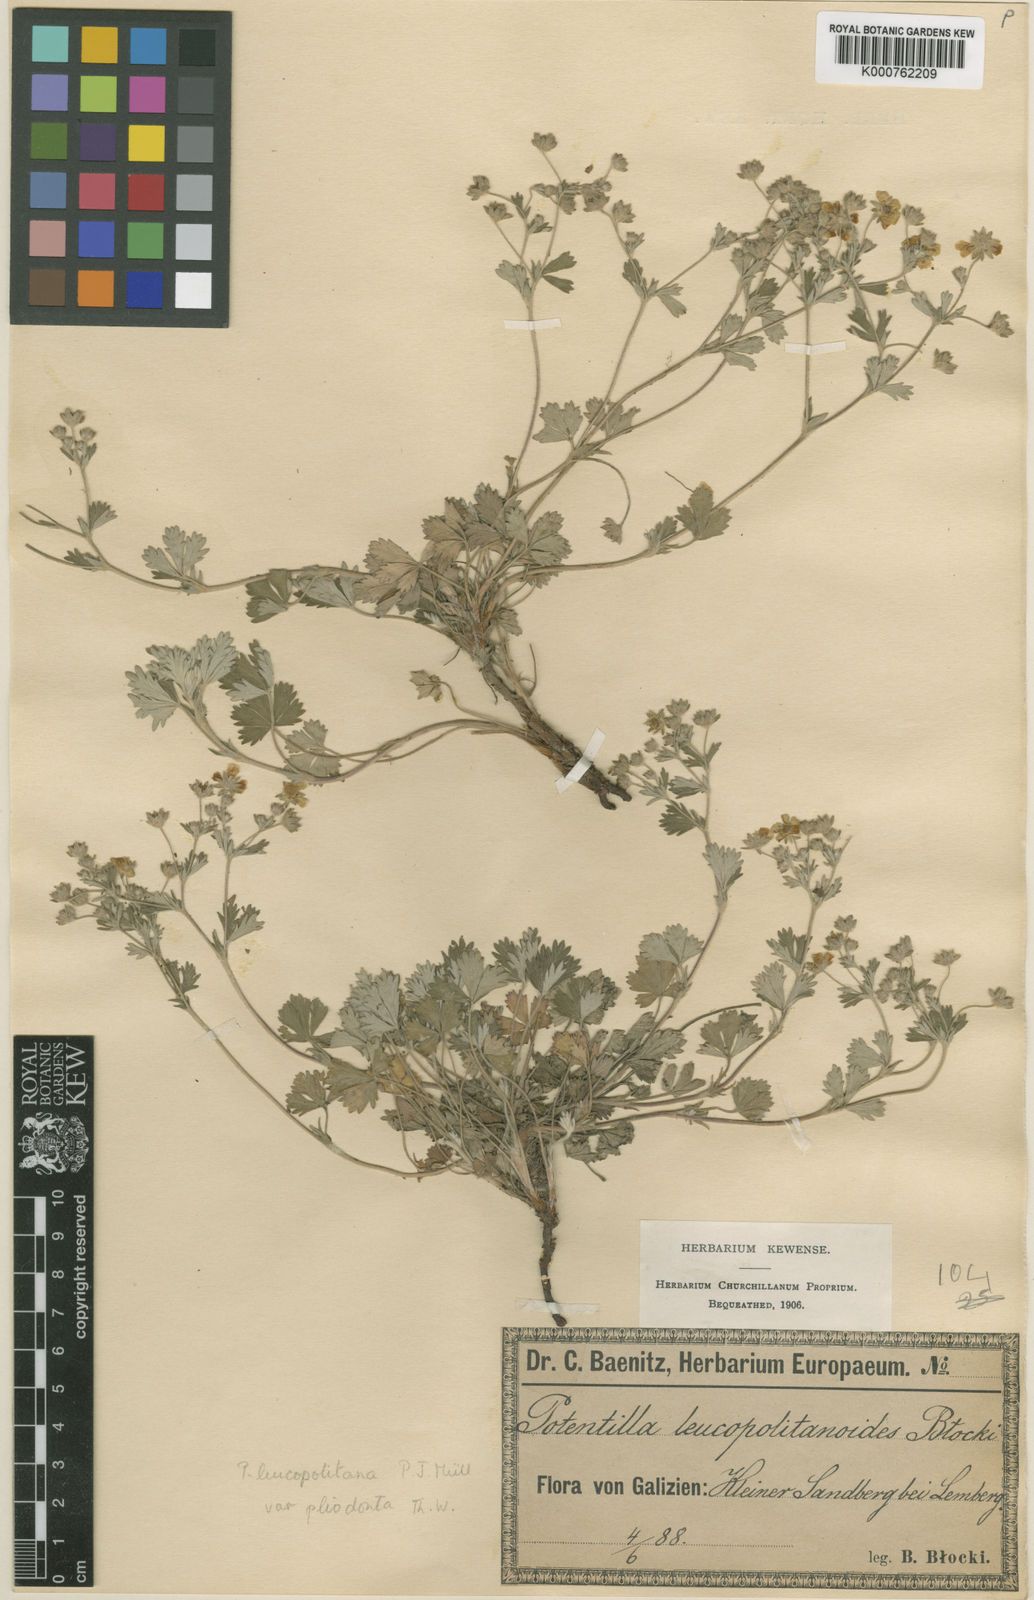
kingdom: Plantae
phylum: Tracheophyta
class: Magnoliopsida
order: Rosales
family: Rosaceae
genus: Potentilla
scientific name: Potentilla
